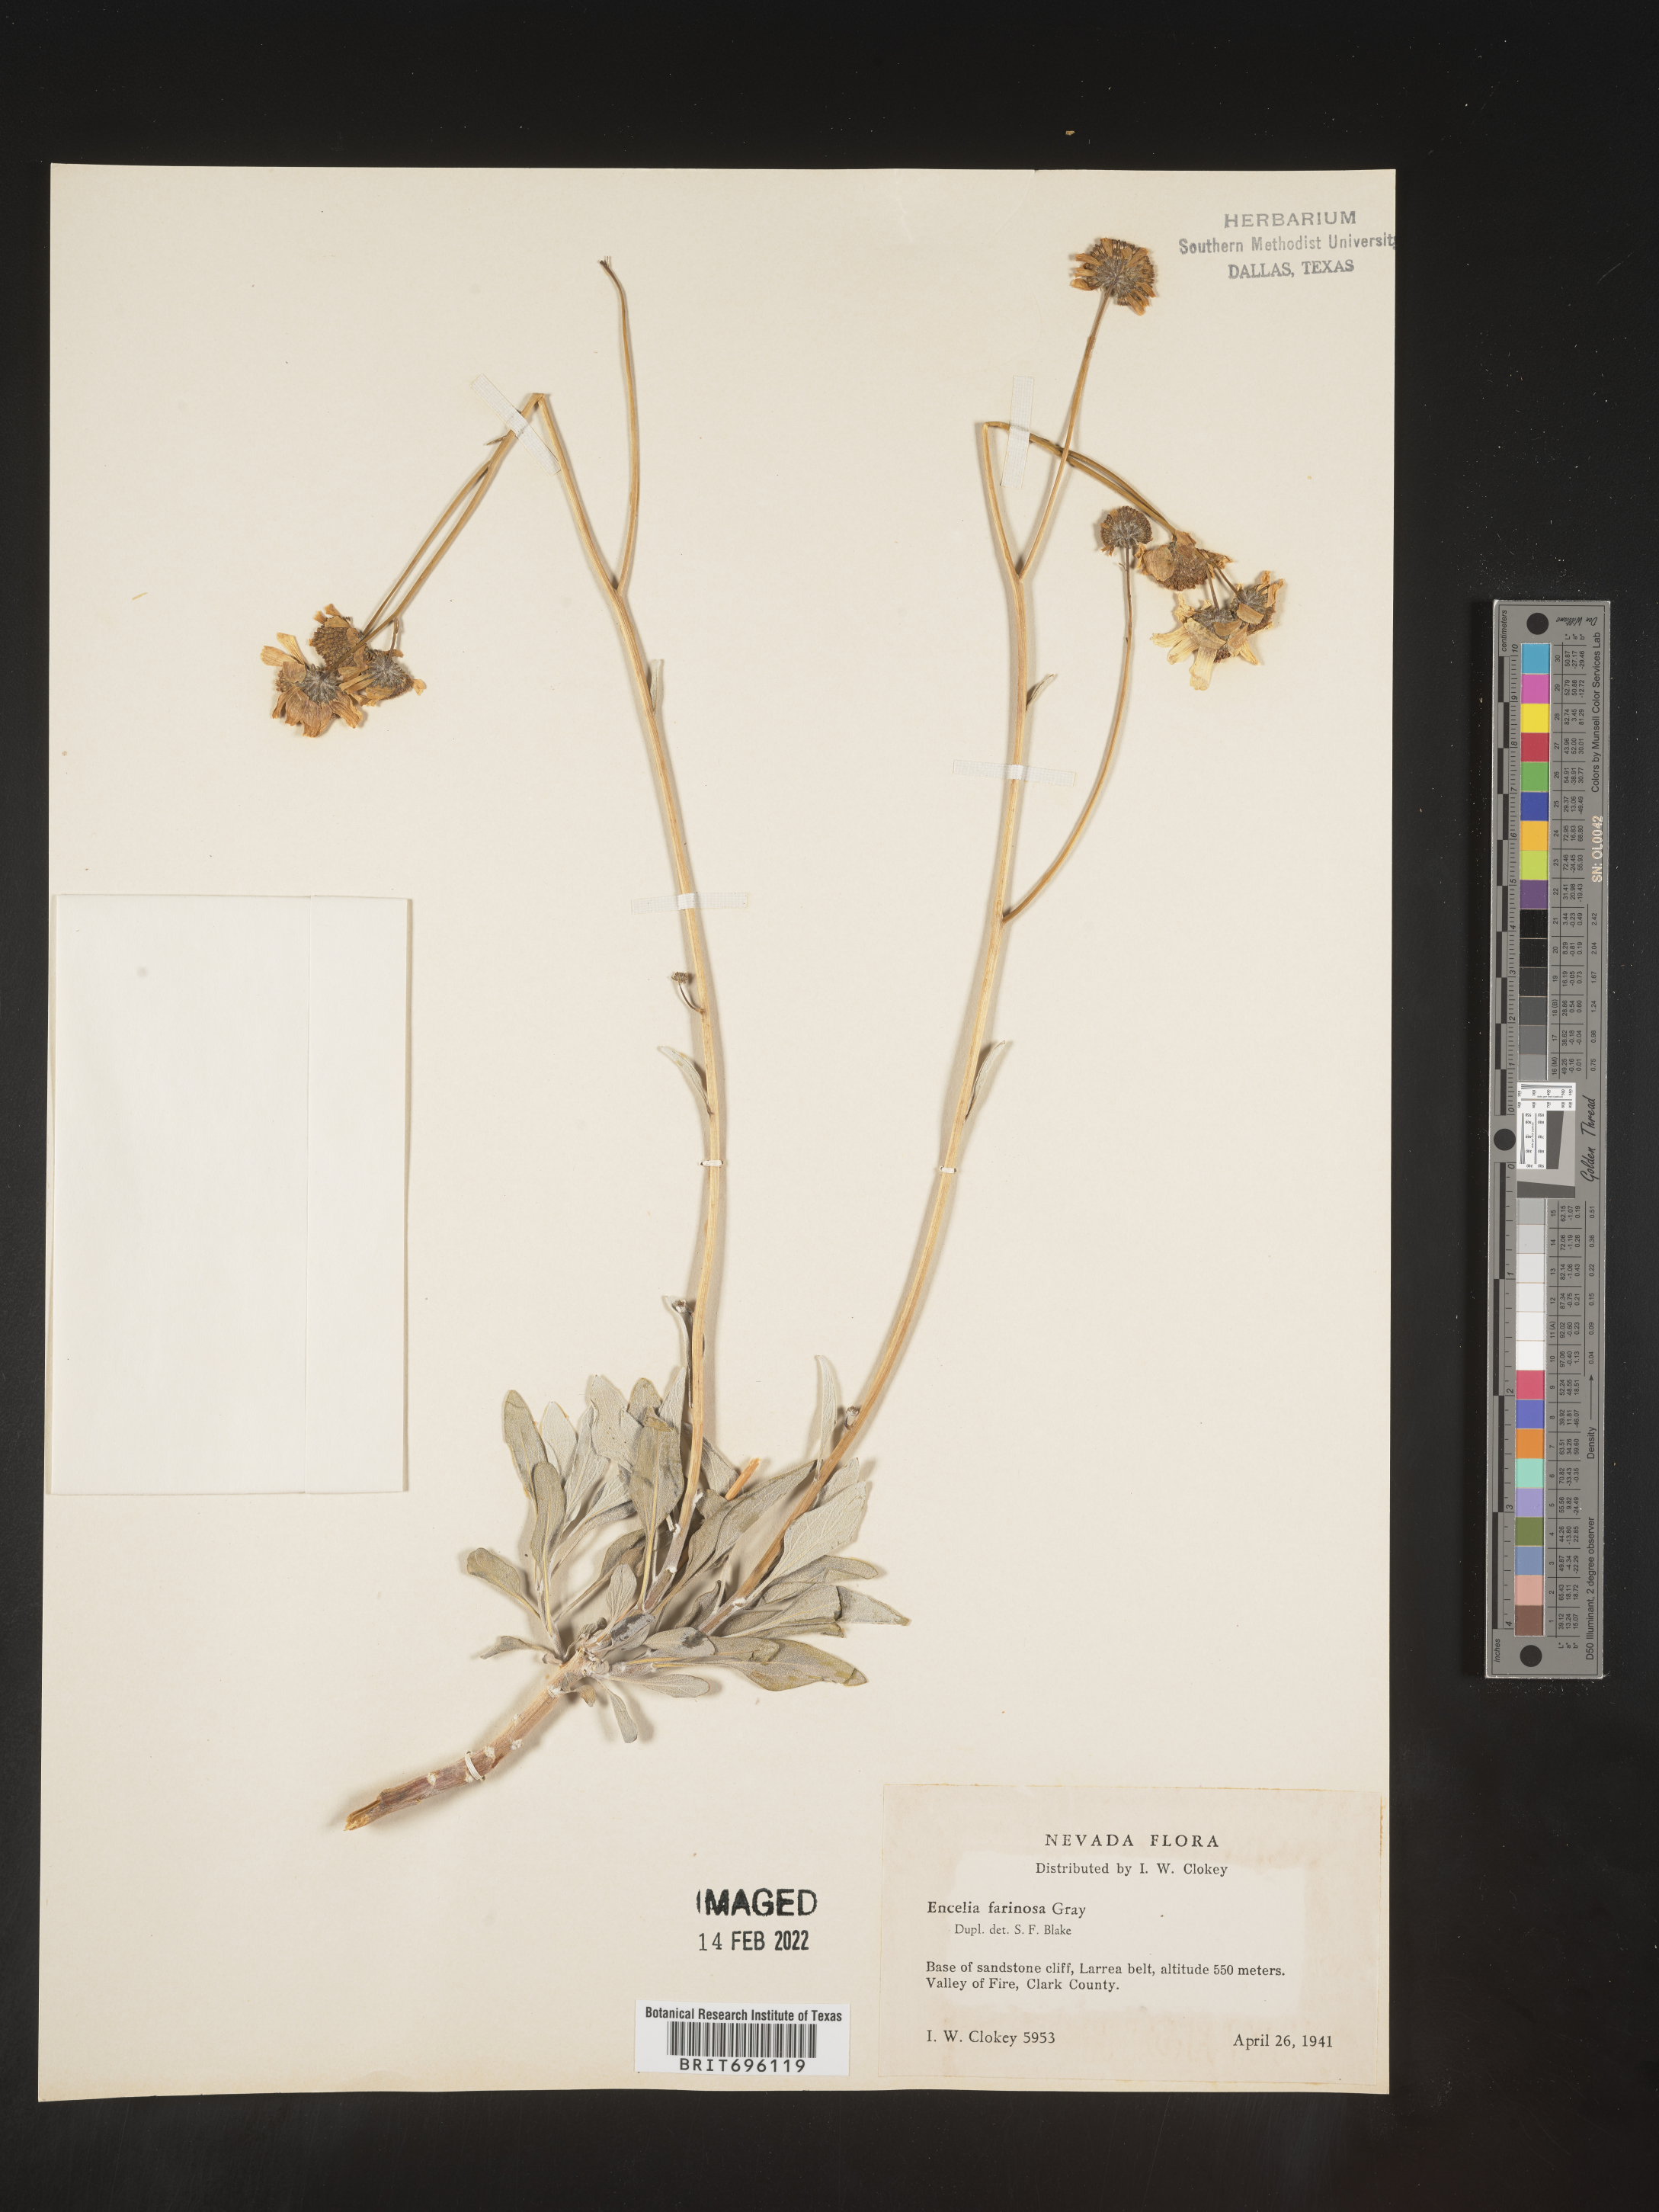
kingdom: Plantae
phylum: Tracheophyta
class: Magnoliopsida
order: Asterales
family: Asteraceae
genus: Encelia
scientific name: Encelia farinosa
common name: Brittlebush
